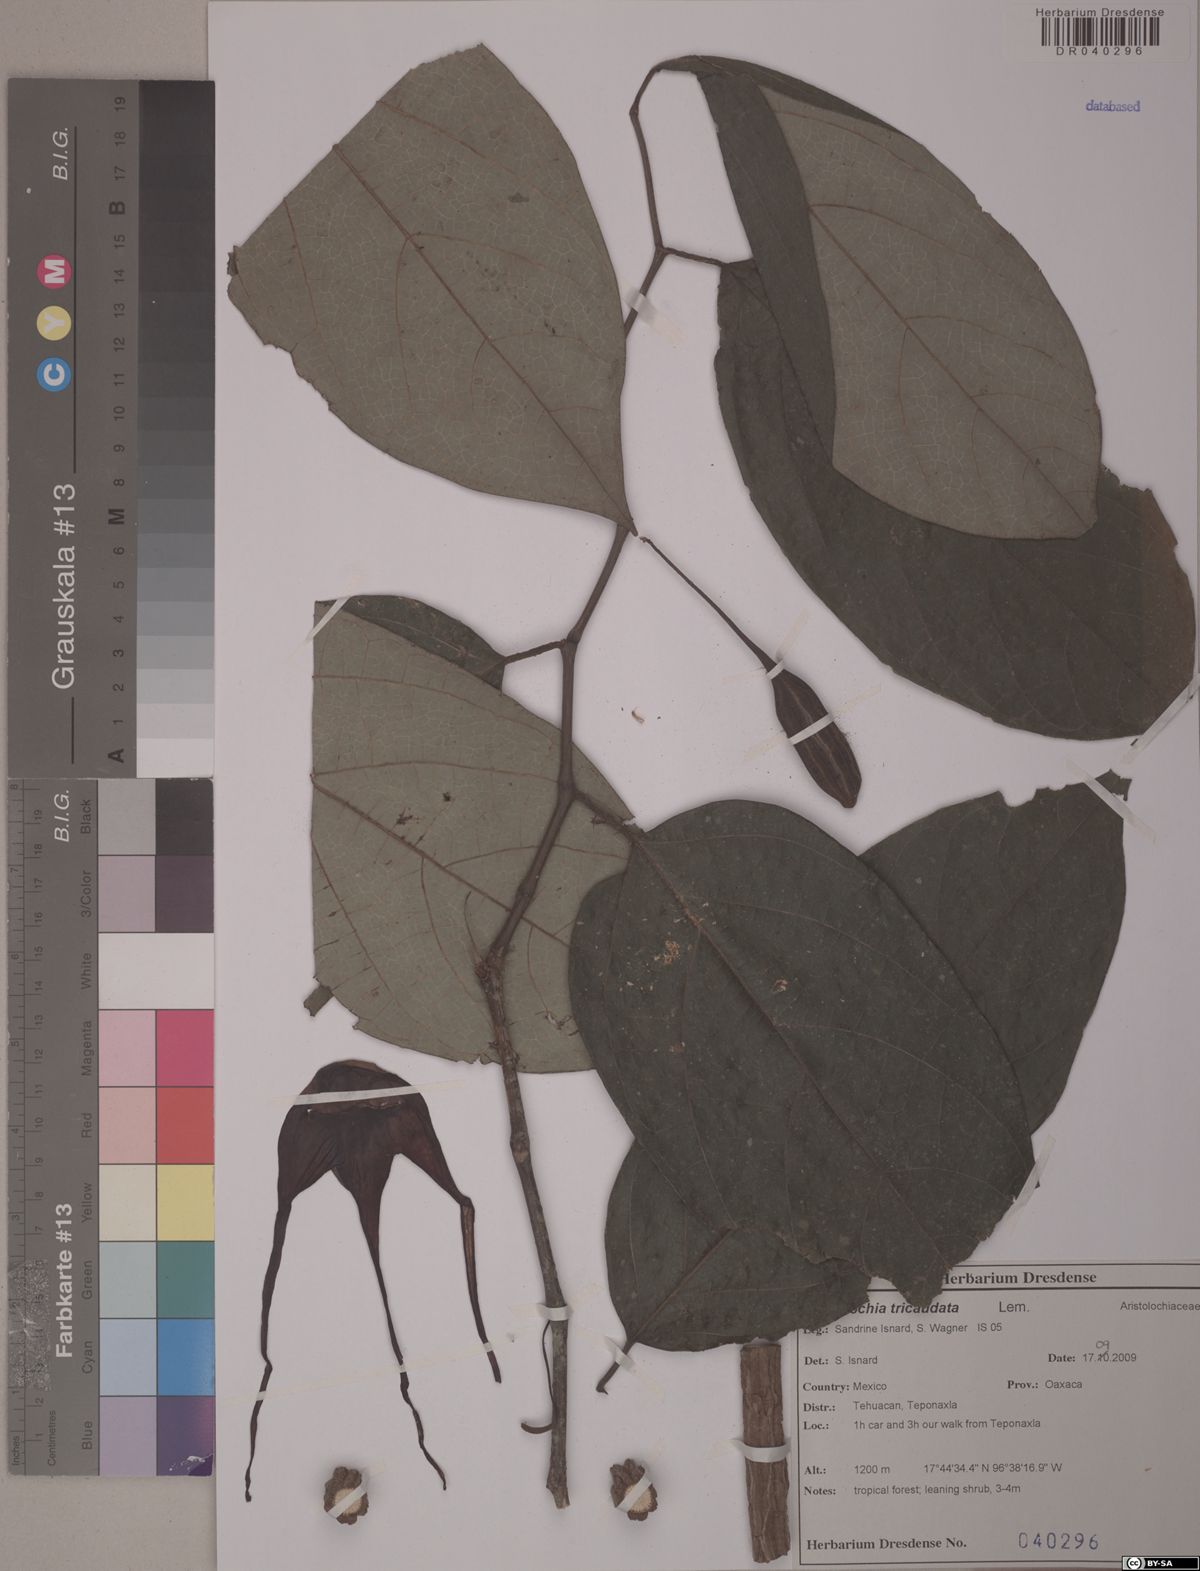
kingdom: Plantae
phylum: Tracheophyta
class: Magnoliopsida
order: Piperales
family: Aristolochiaceae
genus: Isotrema
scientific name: Isotrema tricaudatum
